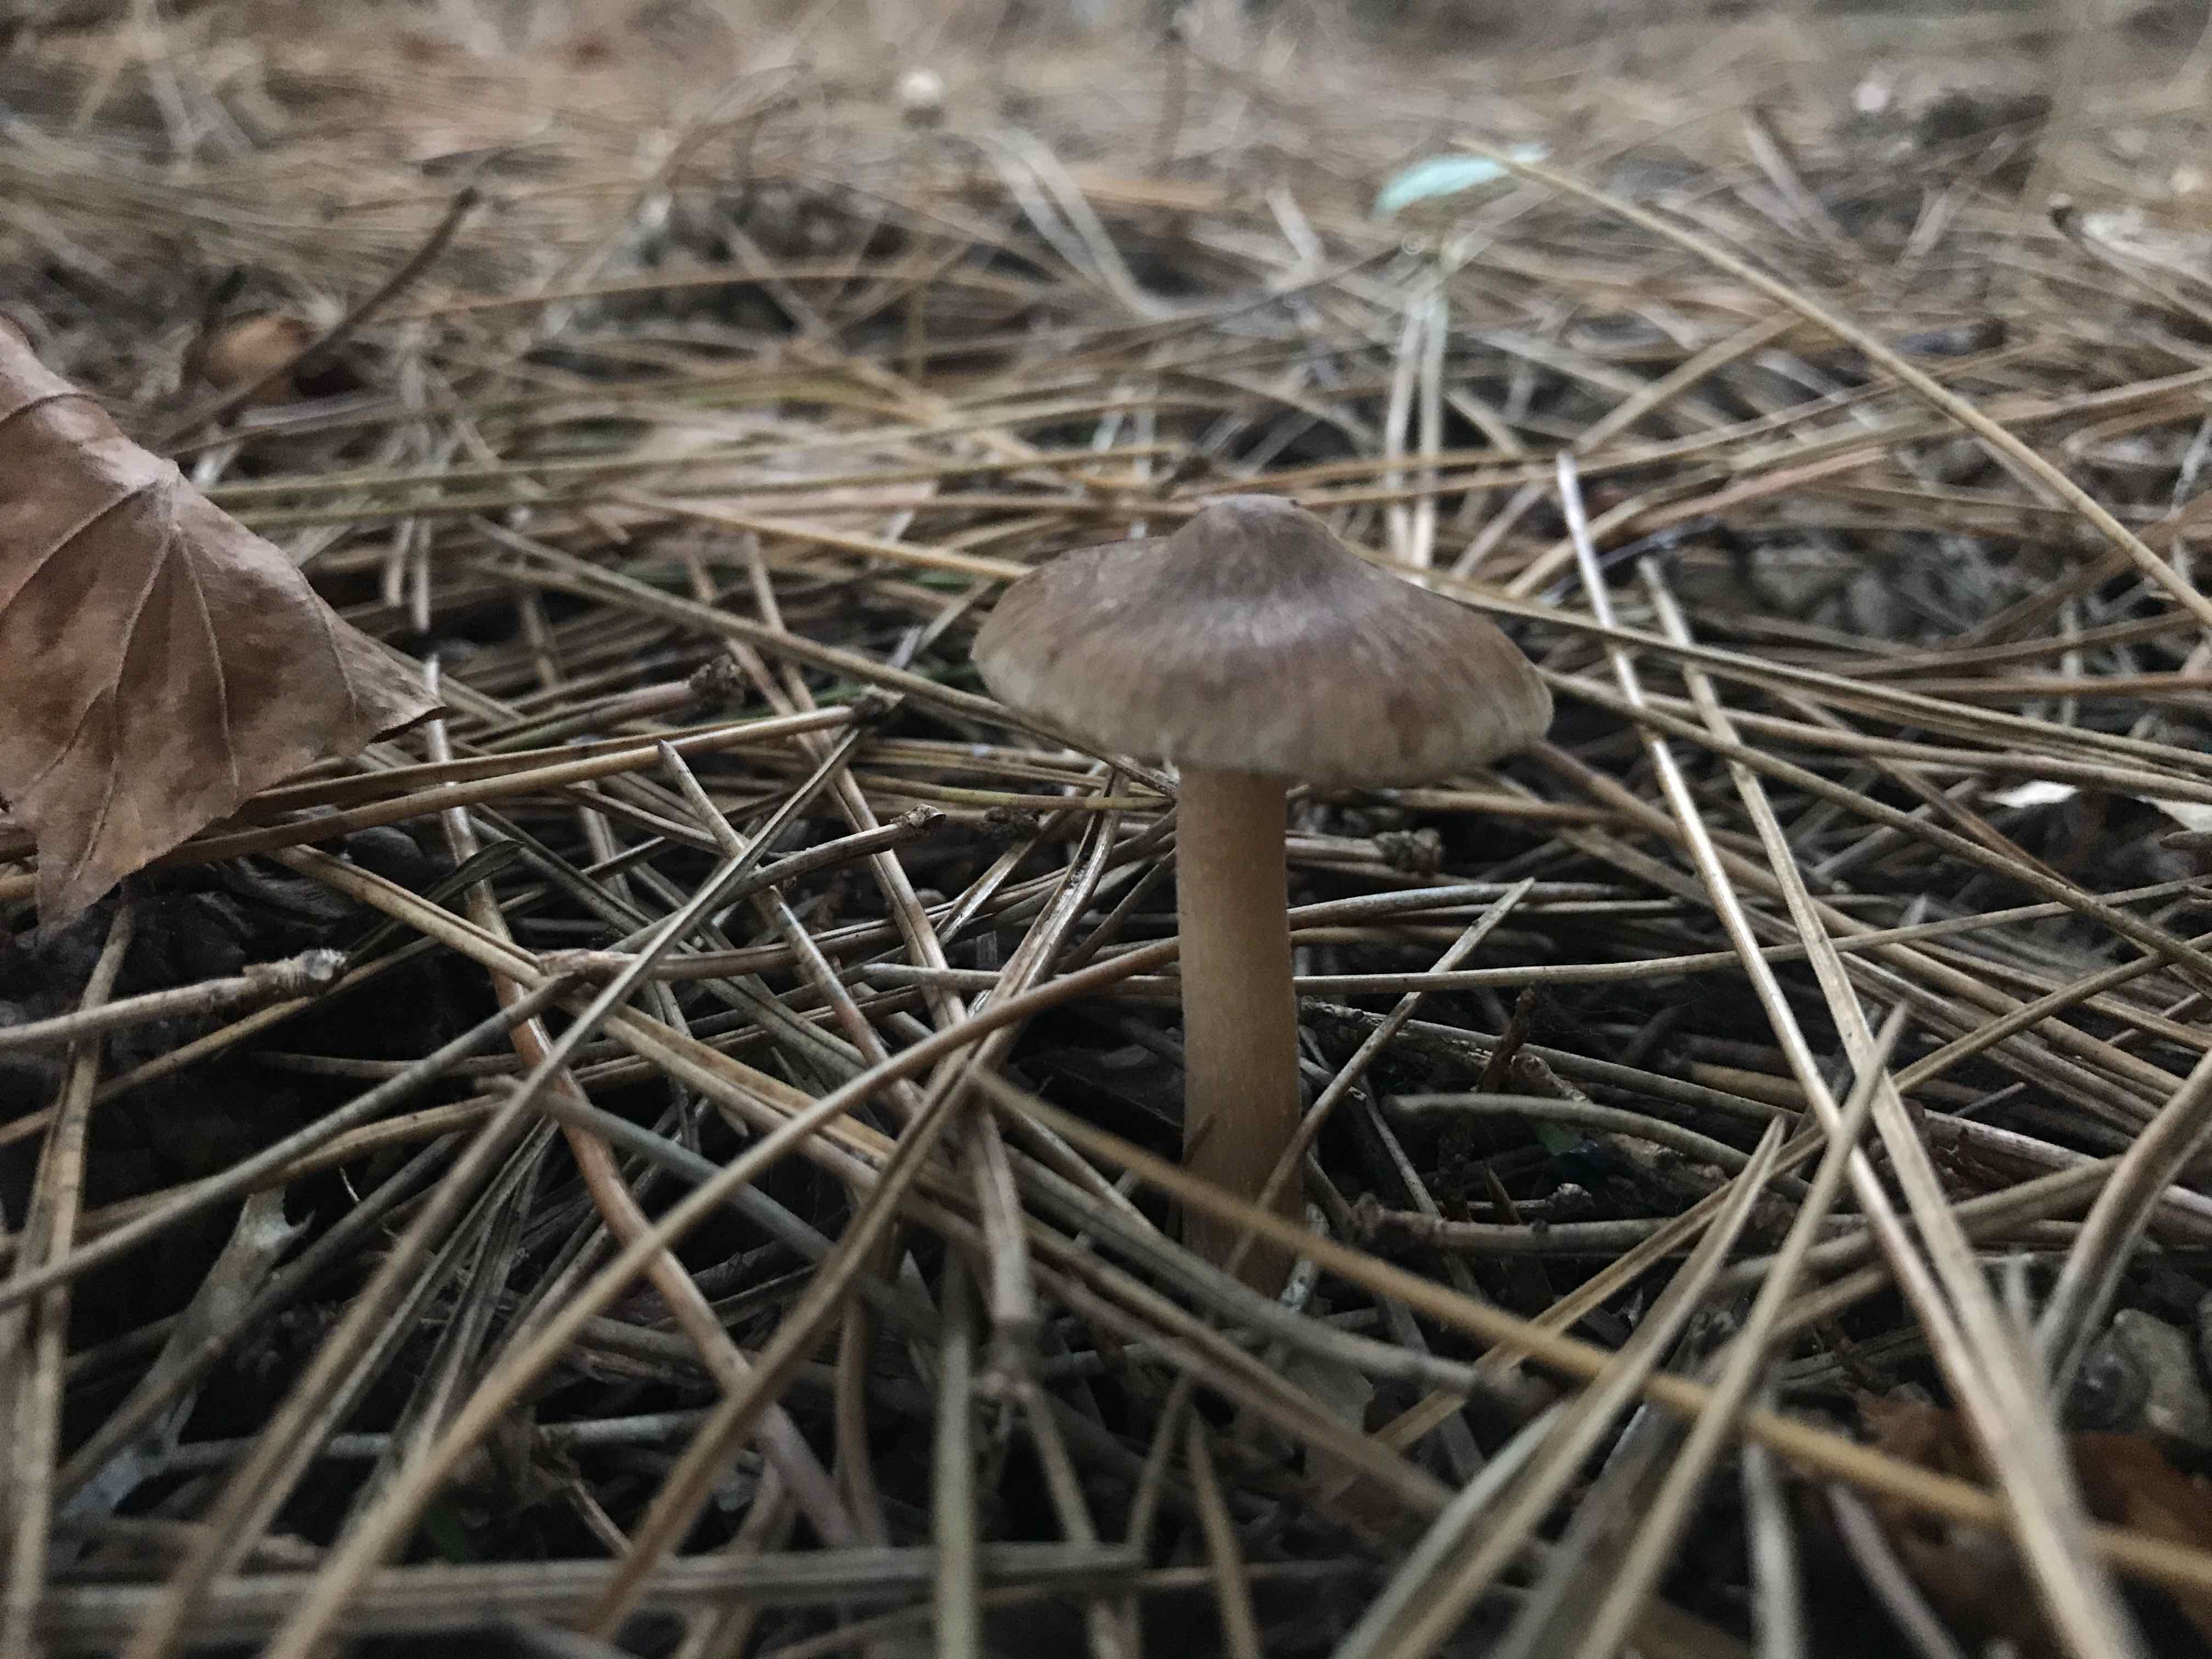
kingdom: Fungi
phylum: Basidiomycota
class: Agaricomycetes
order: Agaricales
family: Inocybaceae
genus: Inocybe
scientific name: Inocybe
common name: trævlhat
